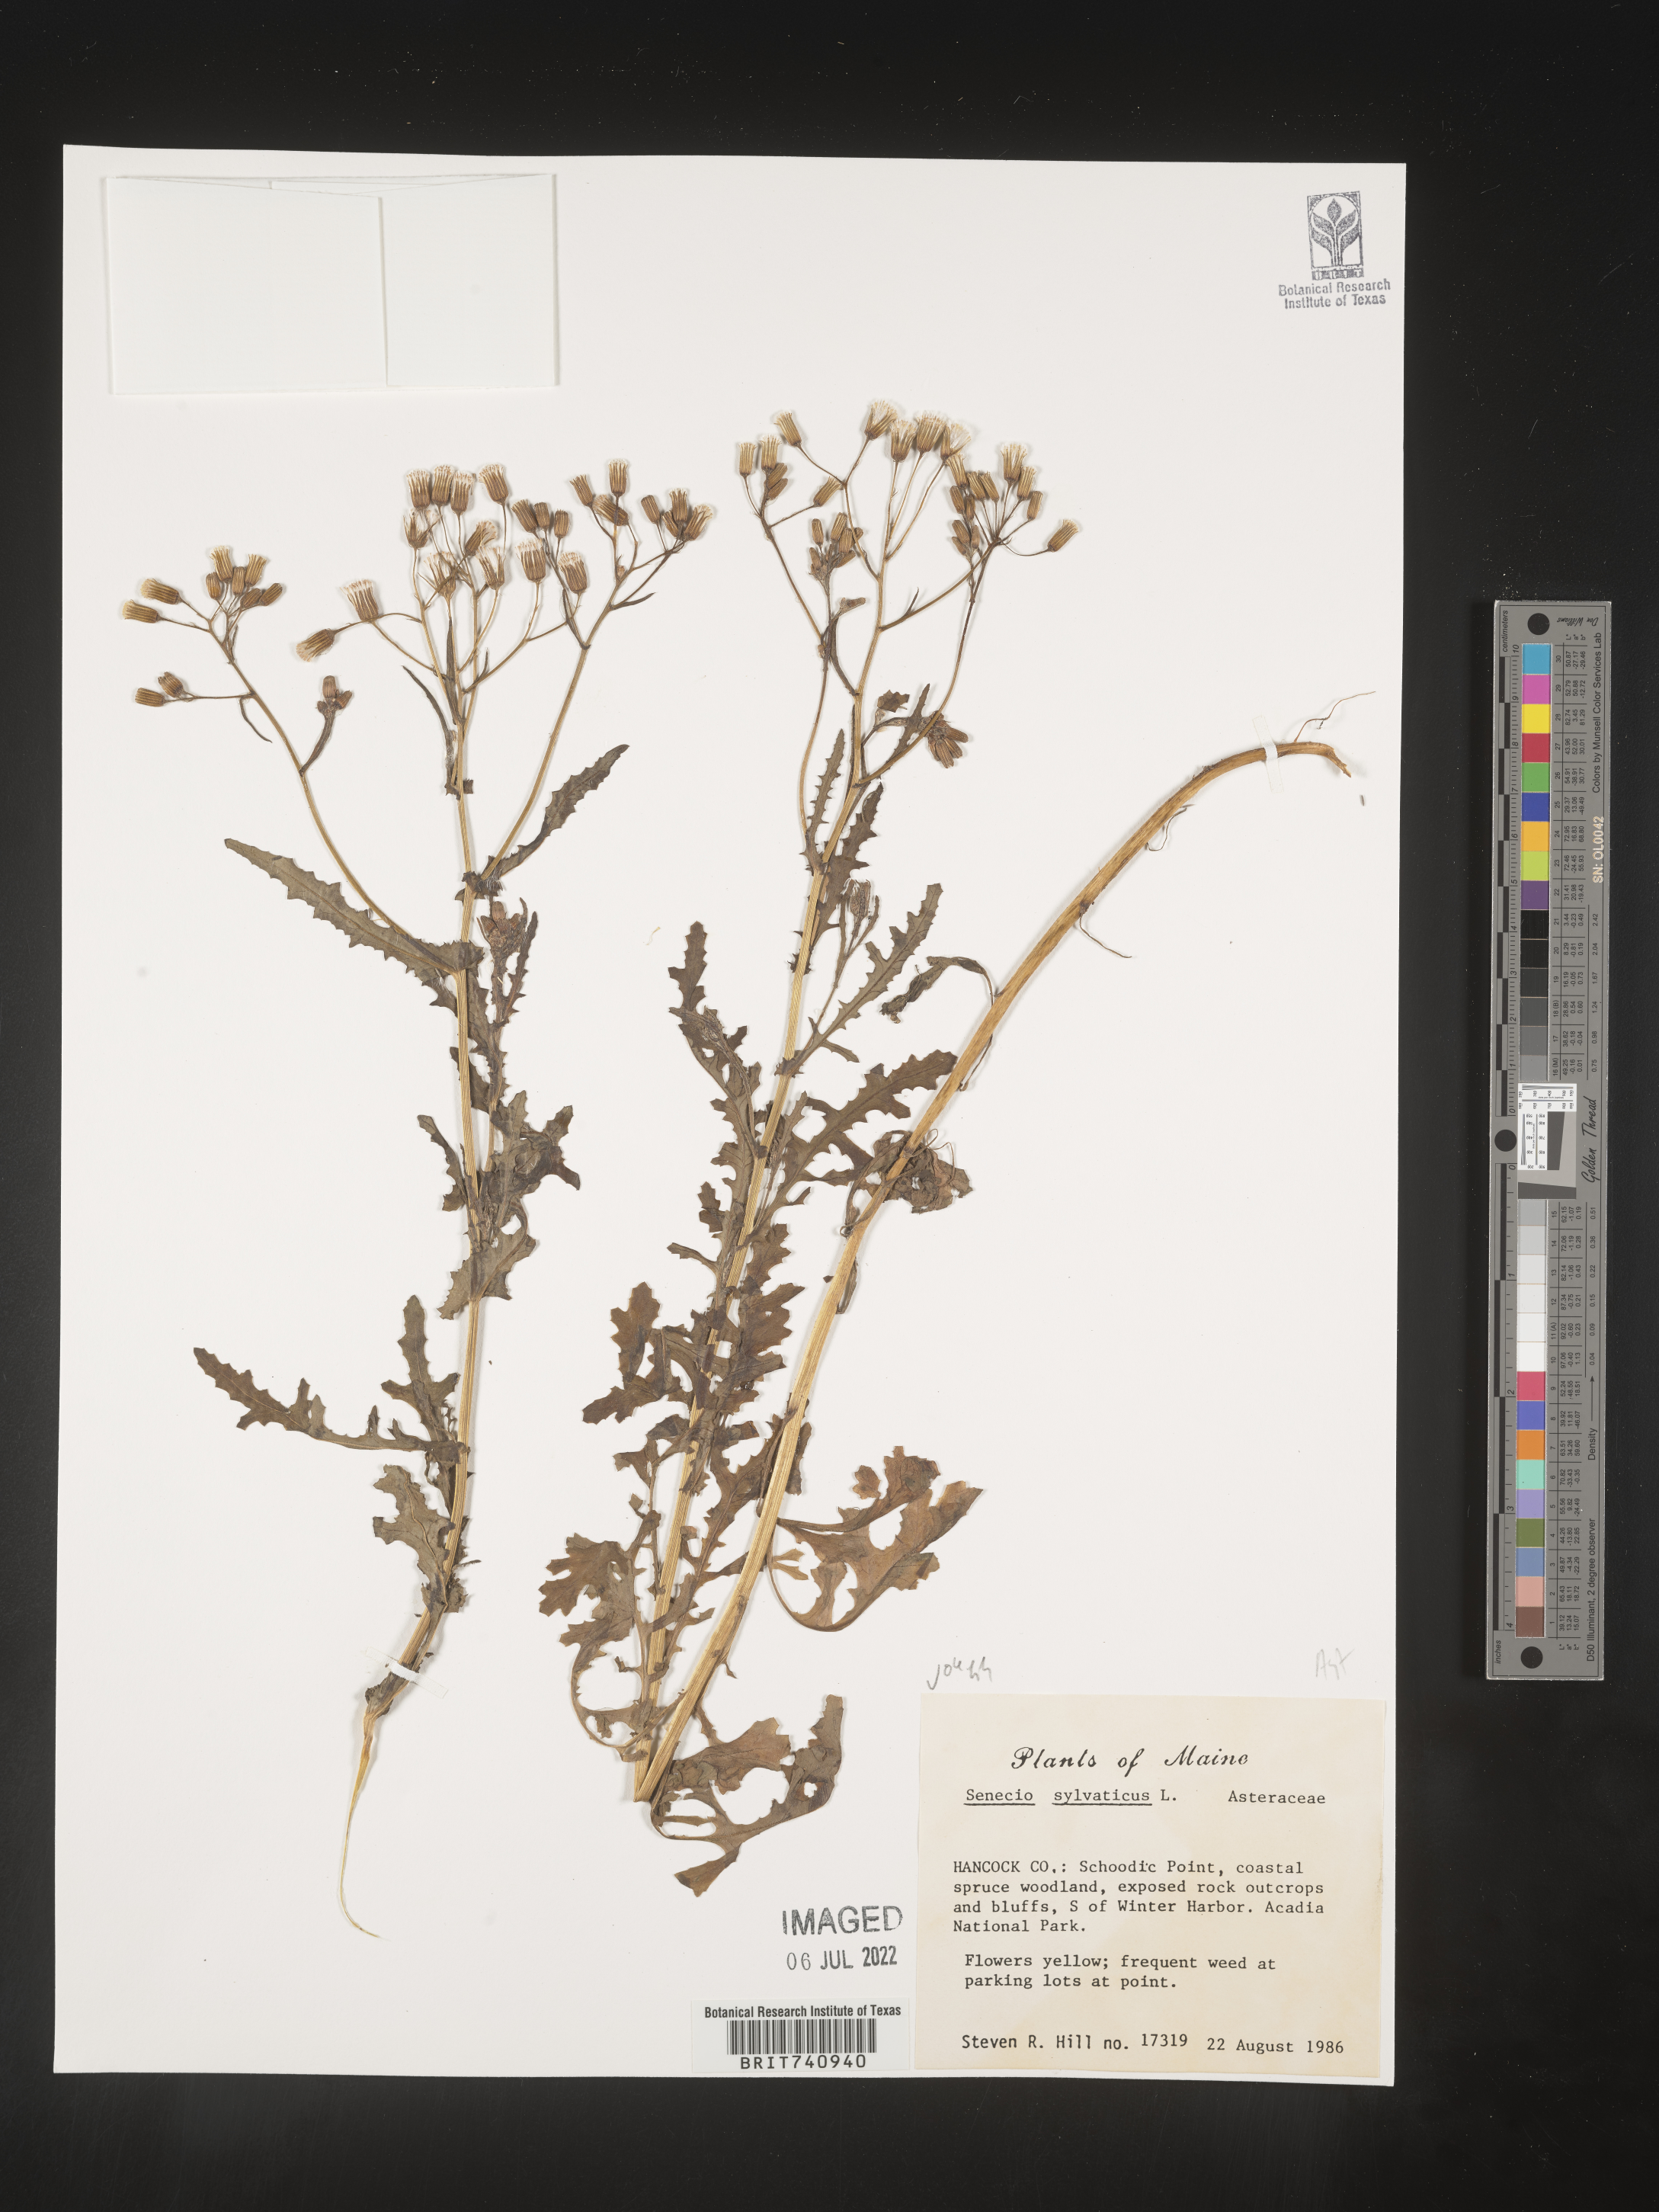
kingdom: Plantae
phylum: Tracheophyta
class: Magnoliopsida
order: Asterales
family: Asteraceae
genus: Senecio
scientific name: Senecio sylvaticus
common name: Woodland ragwort
